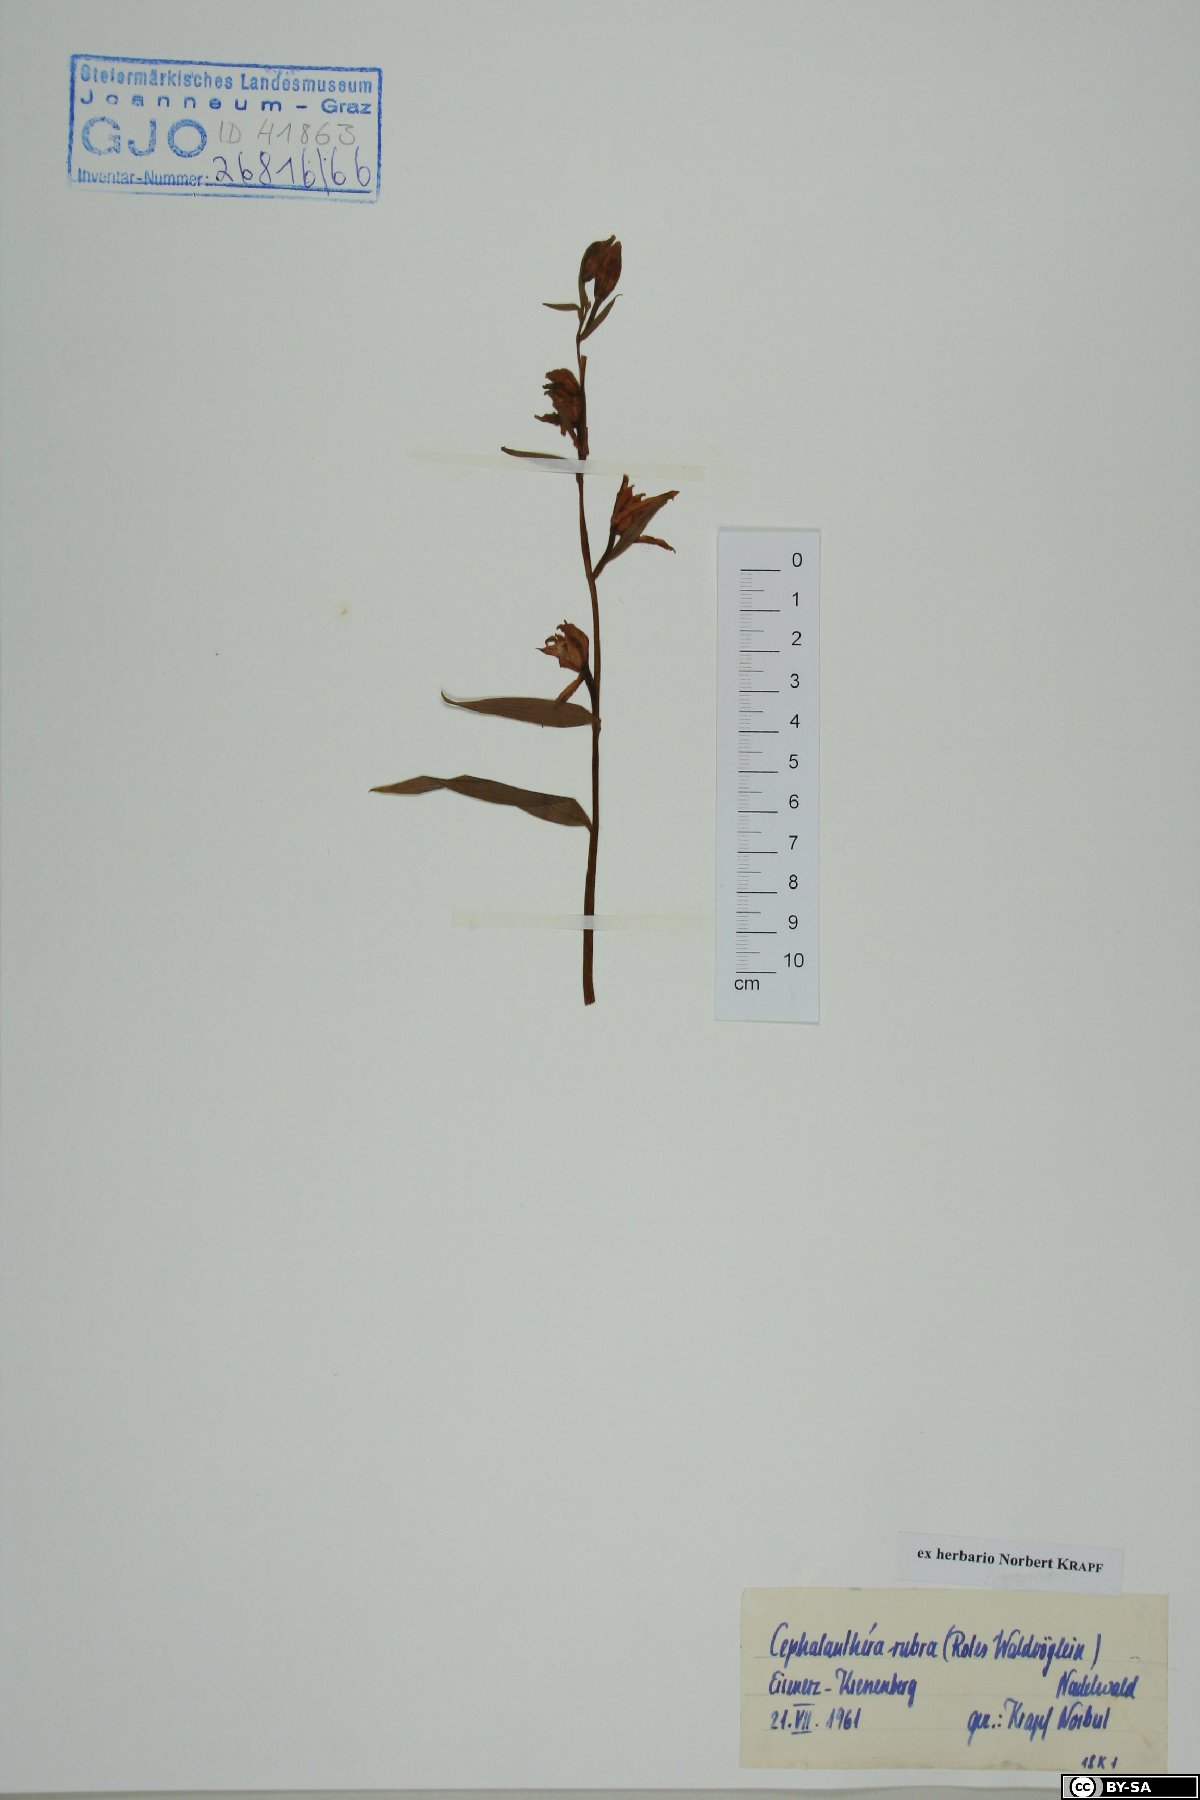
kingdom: Plantae
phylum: Tracheophyta
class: Liliopsida
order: Asparagales
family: Orchidaceae
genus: Cephalanthera
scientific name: Cephalanthera rubra
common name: Red helleborine
